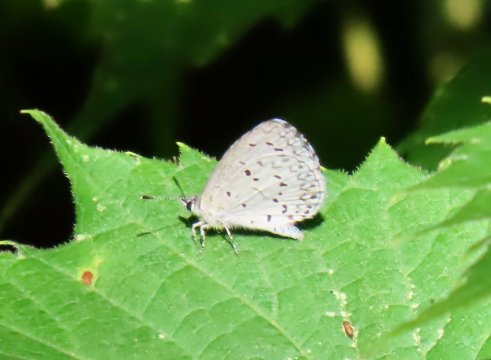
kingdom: Animalia
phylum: Arthropoda
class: Insecta
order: Lepidoptera
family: Lycaenidae
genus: Cyaniris
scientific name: Cyaniris neglecta
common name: Summer Azure
